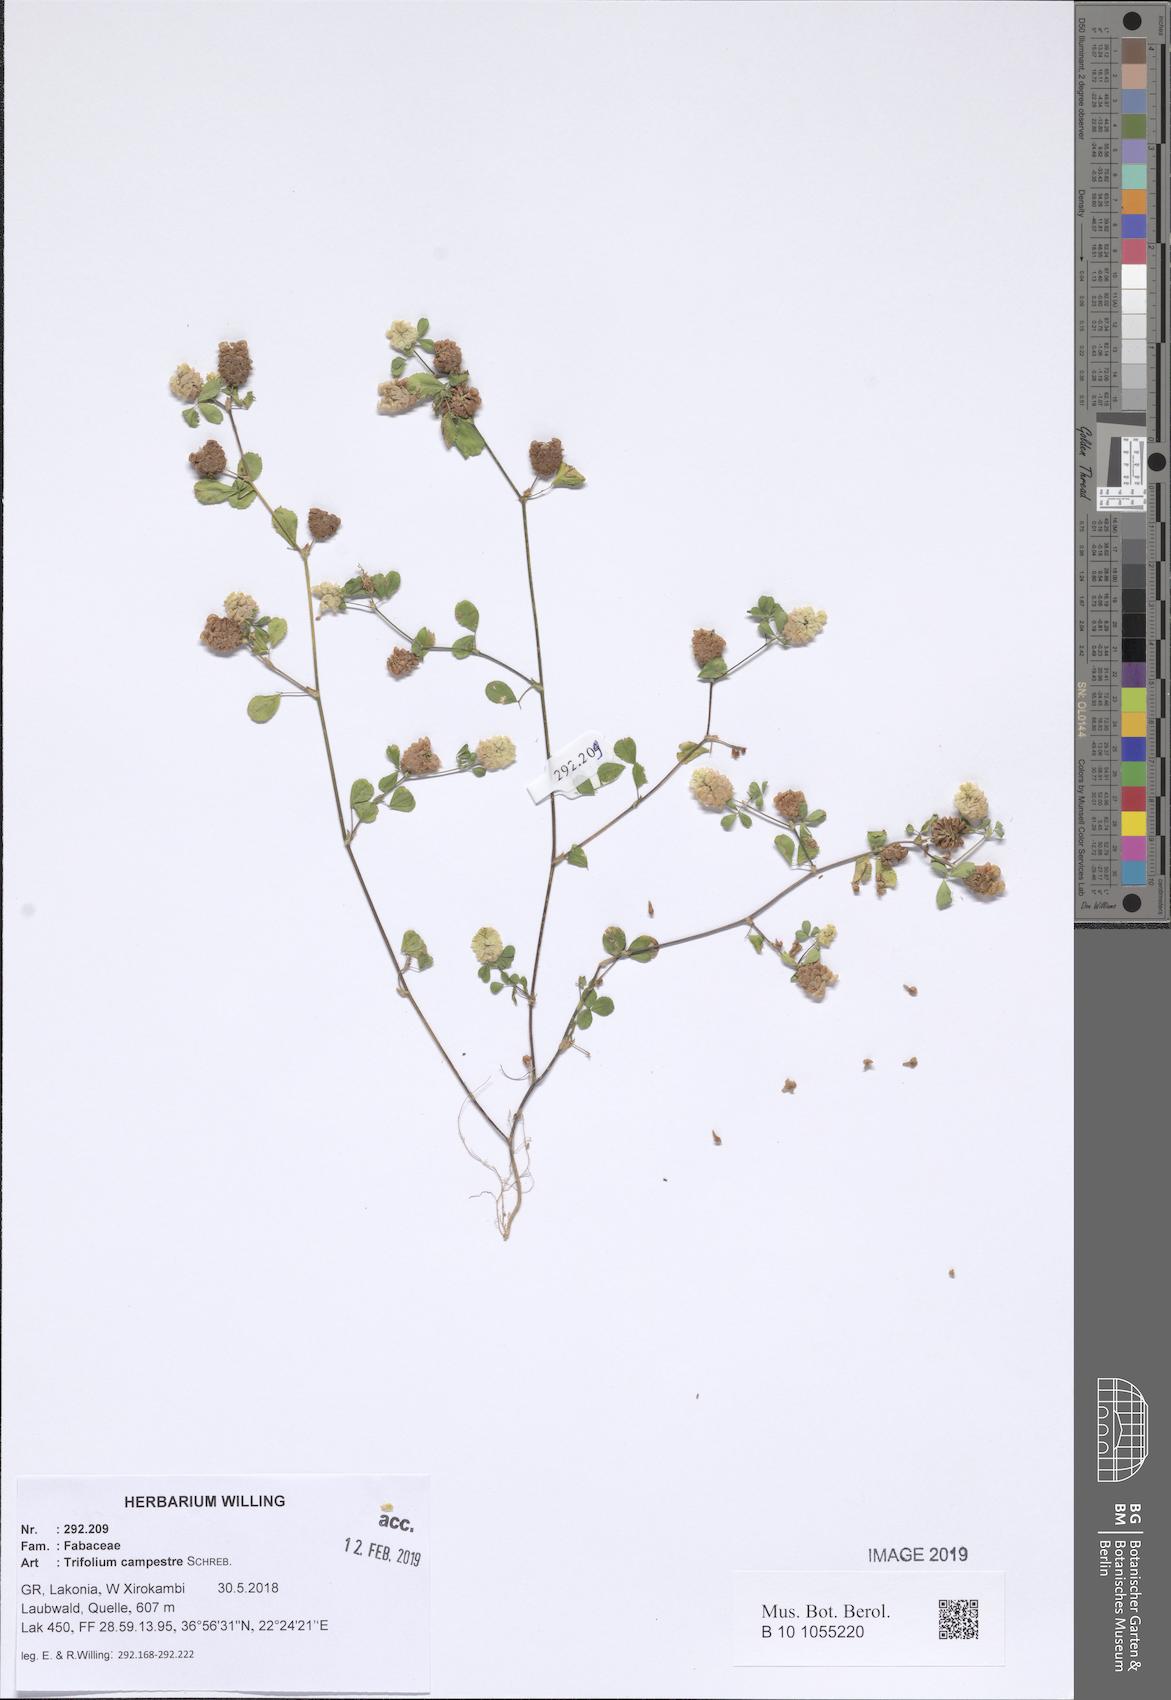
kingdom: Plantae
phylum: Tracheophyta
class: Magnoliopsida
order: Fabales
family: Fabaceae
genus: Trifolium
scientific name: Trifolium campestre
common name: Field clover
